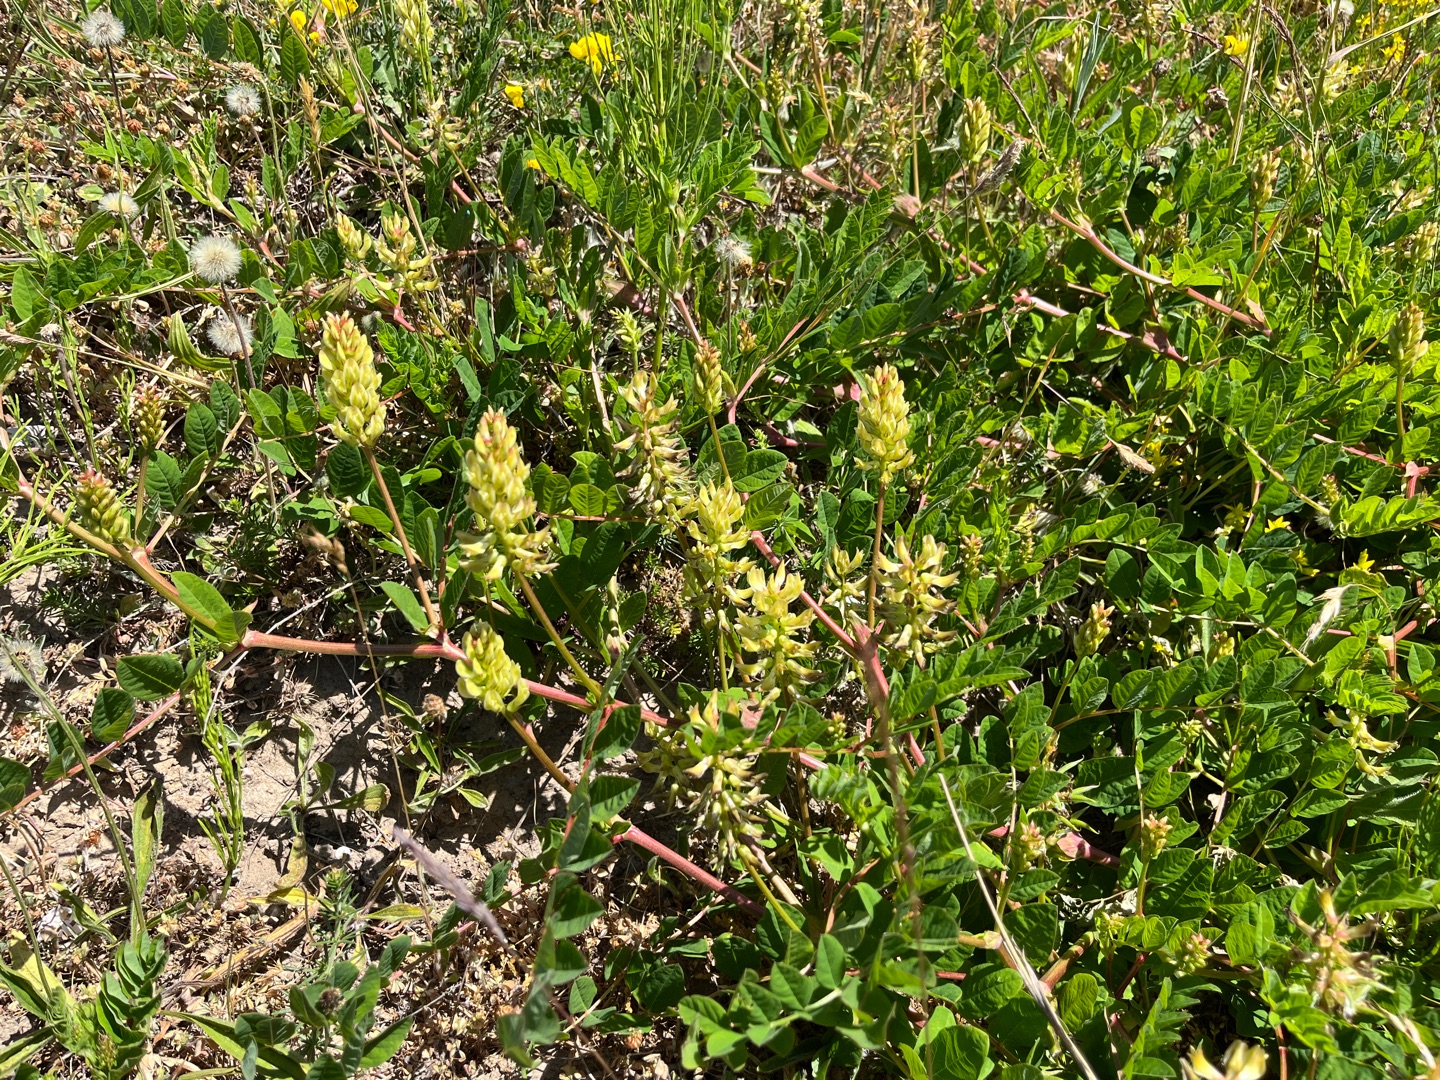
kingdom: Plantae
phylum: Tracheophyta
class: Magnoliopsida
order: Fabales
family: Fabaceae
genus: Astragalus
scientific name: Astragalus glycyphyllos
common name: Sød astragel
